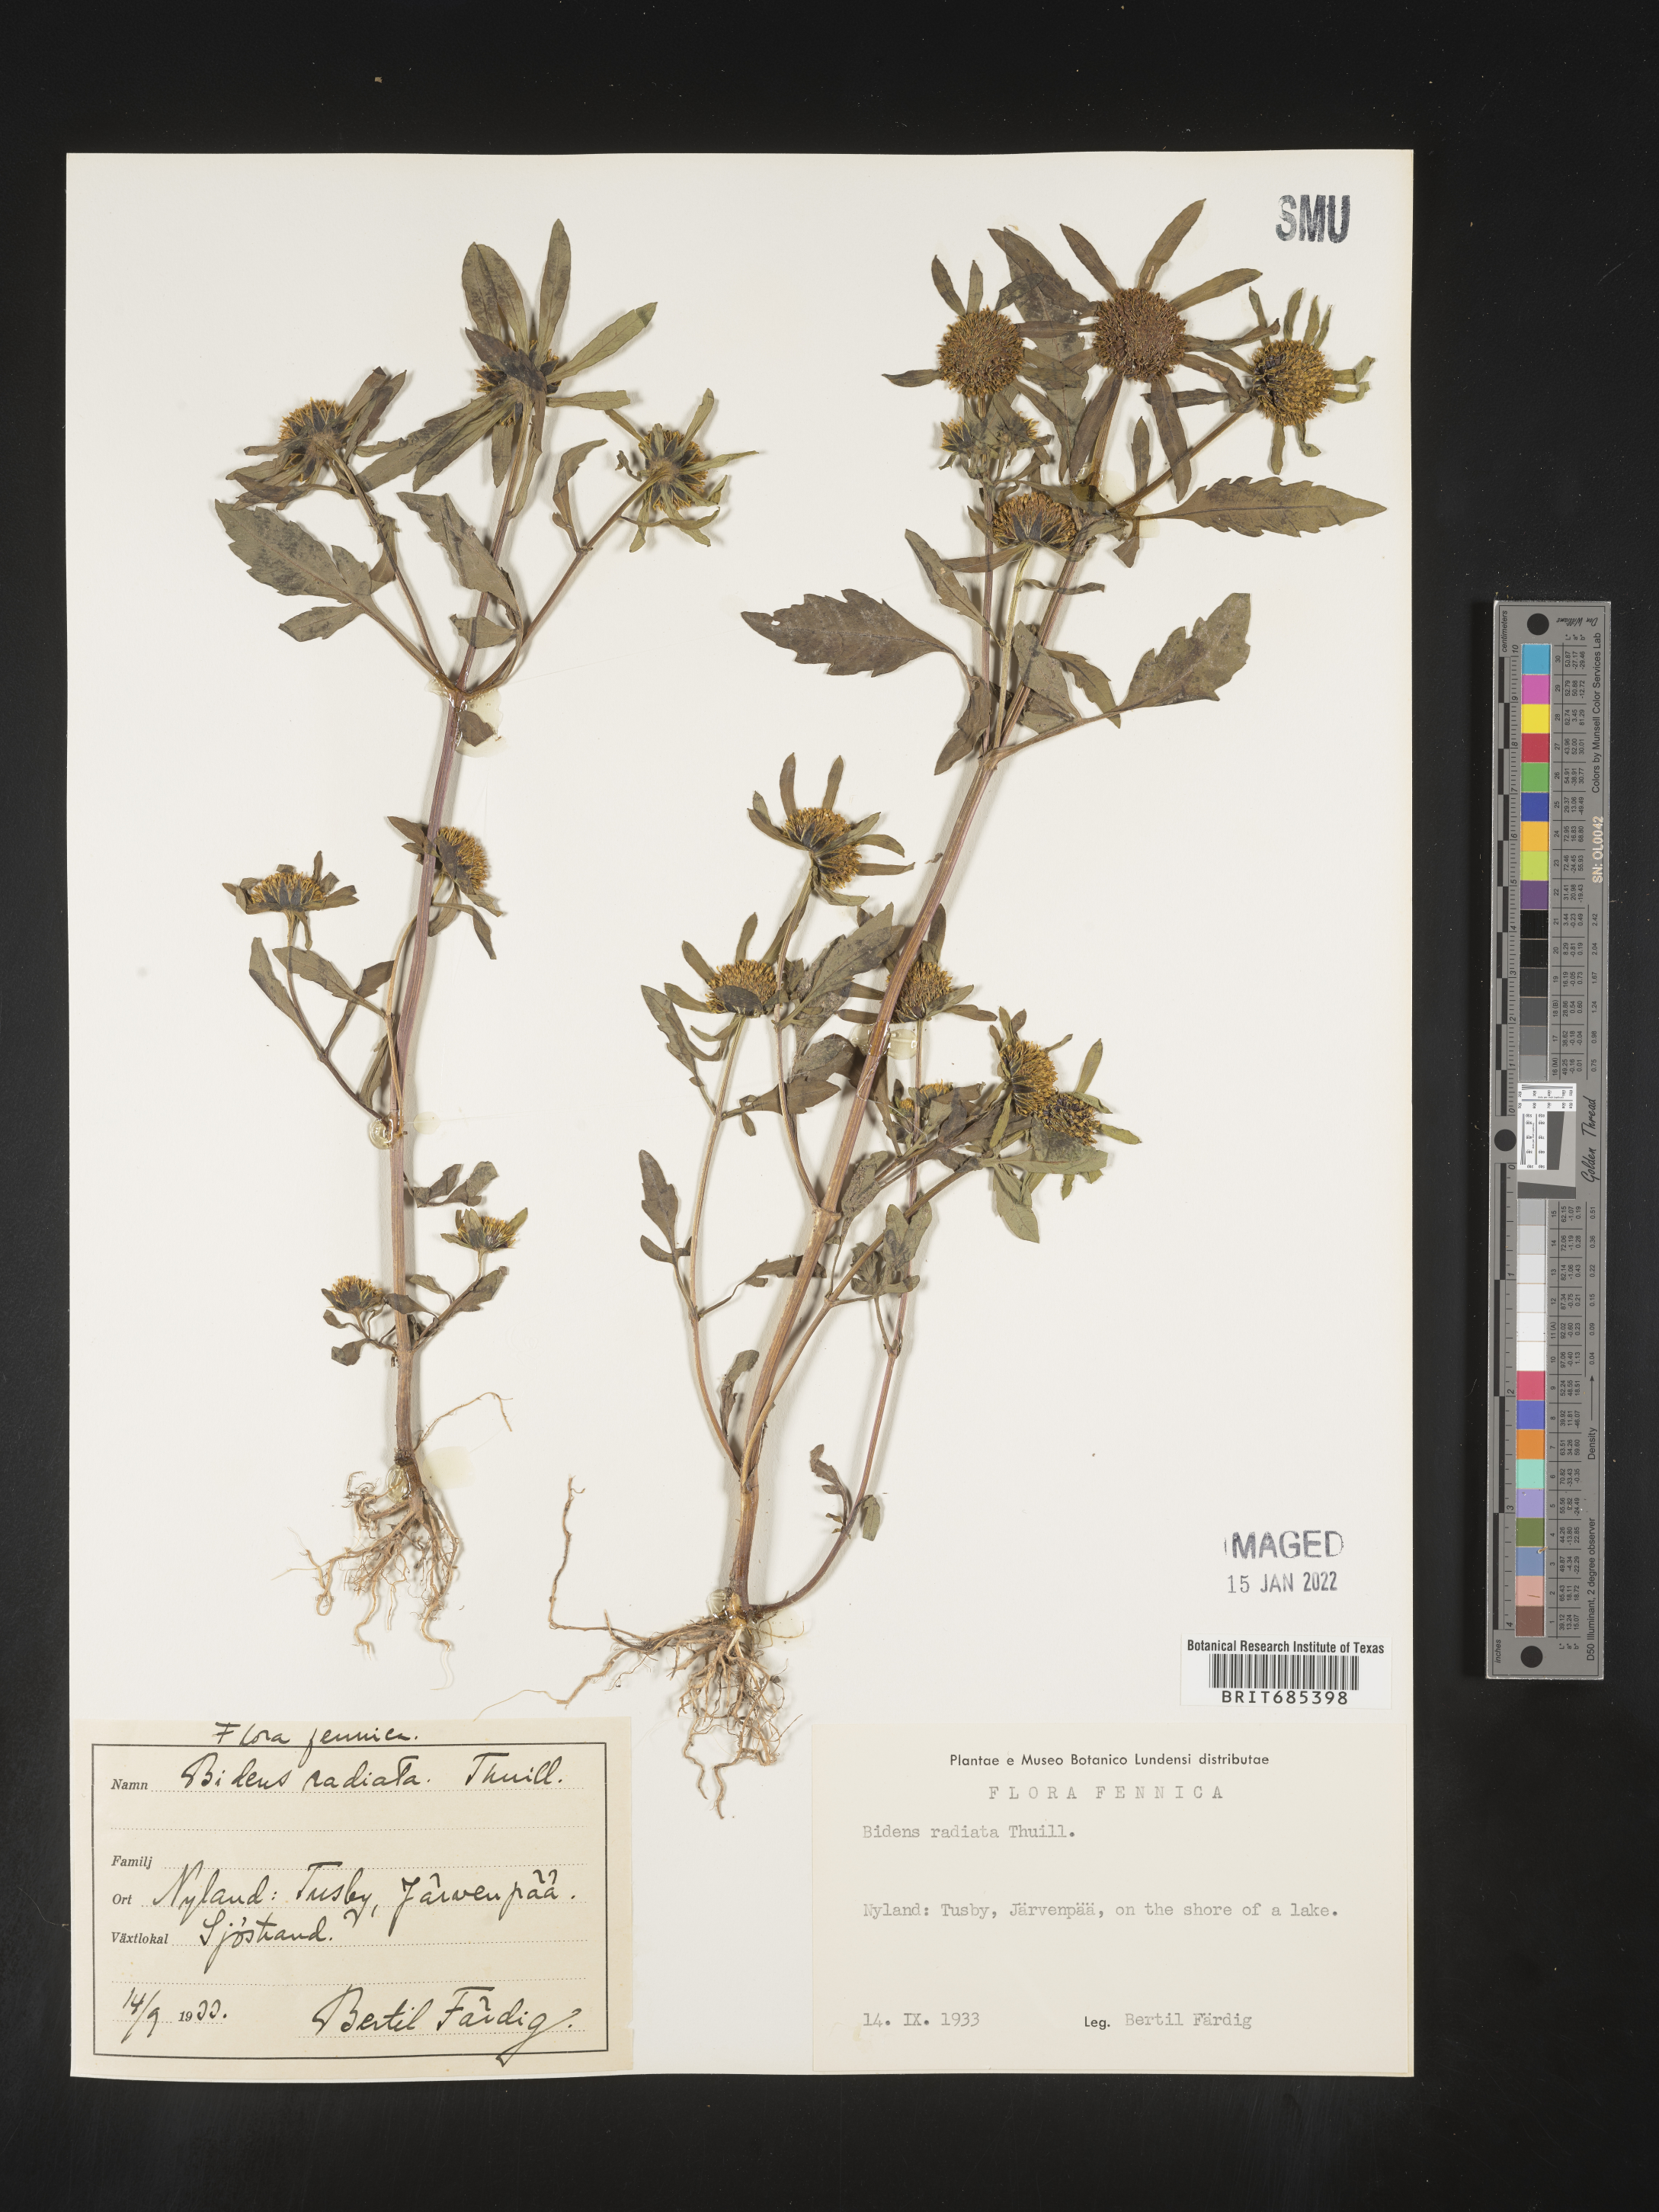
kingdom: Plantae
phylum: Tracheophyta
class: Magnoliopsida
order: Asterales
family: Asteraceae
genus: Bidens
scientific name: Bidens
